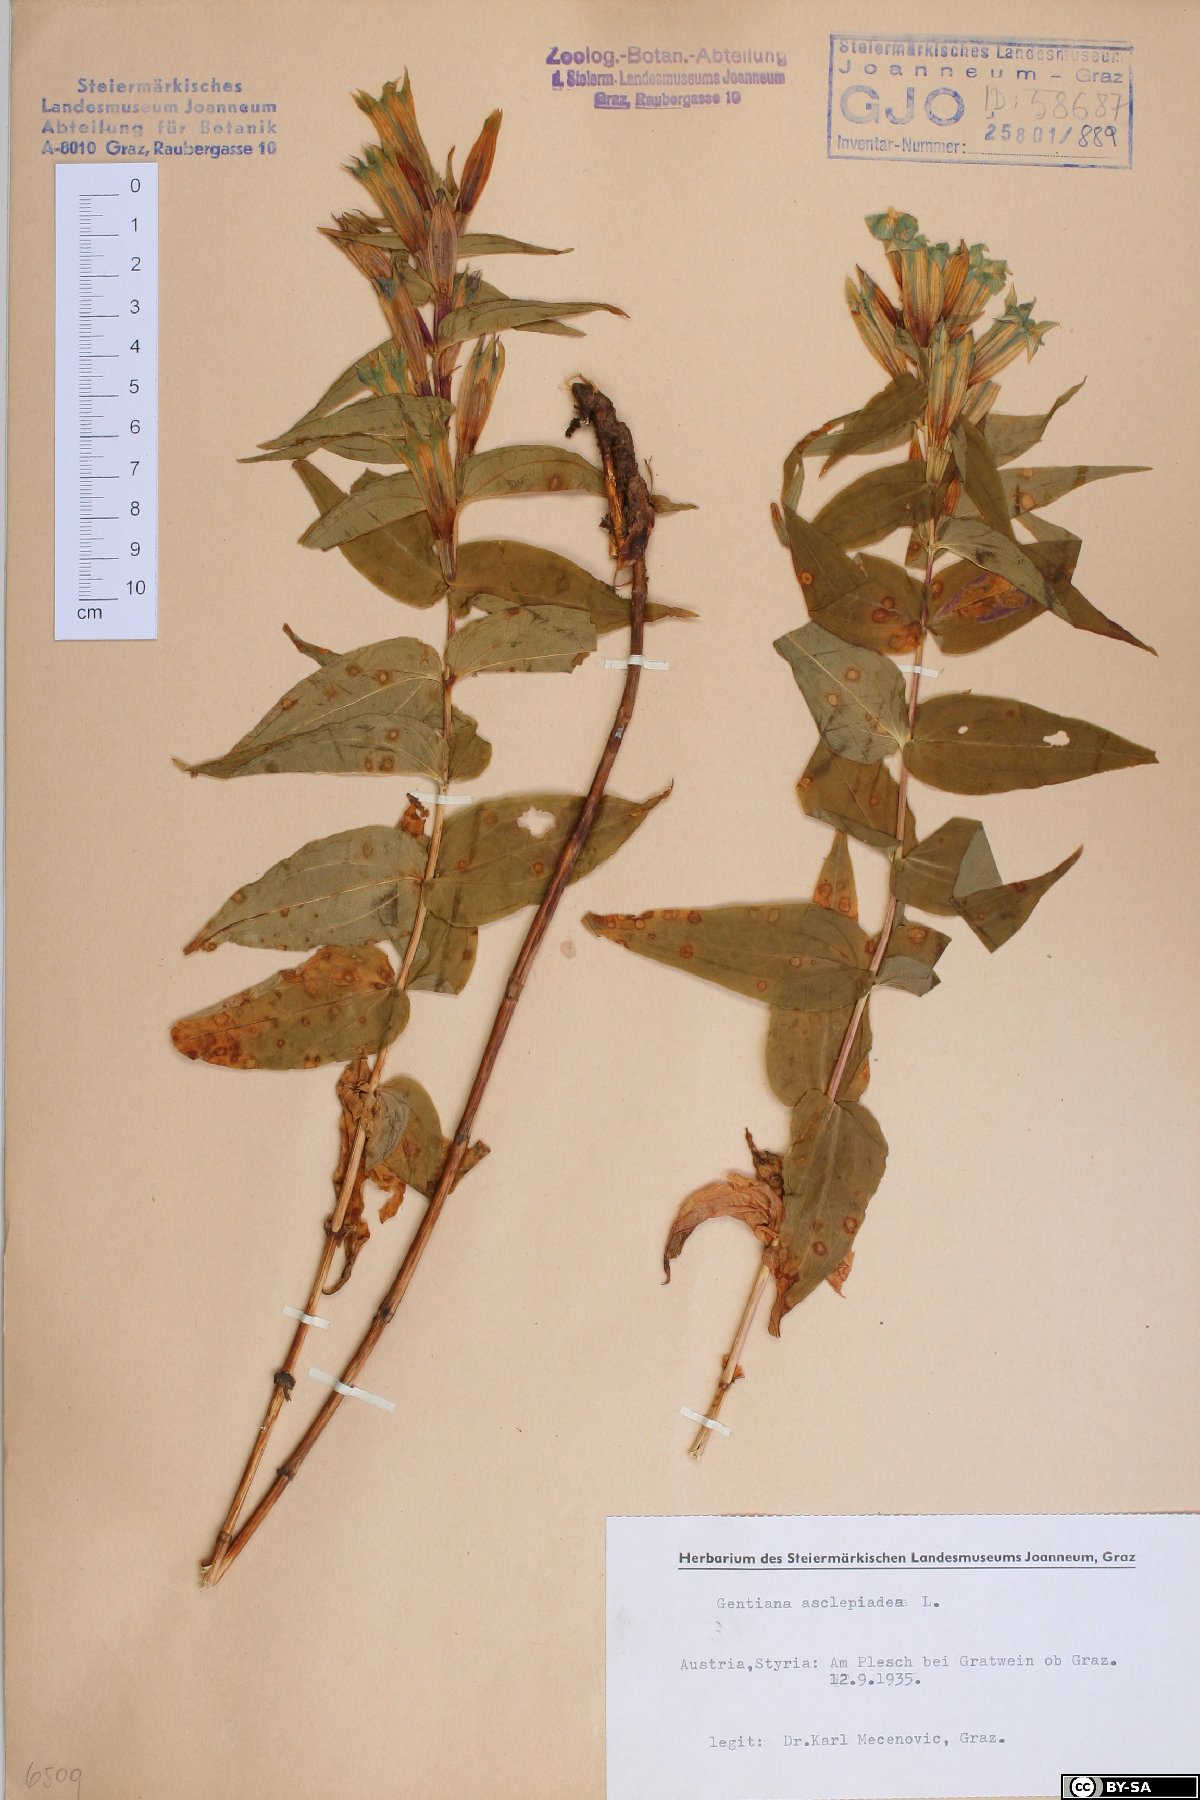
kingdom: Plantae
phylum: Tracheophyta
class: Magnoliopsida
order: Gentianales
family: Gentianaceae
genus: Gentiana
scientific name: Gentiana asclepiadea
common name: Willow gentian
